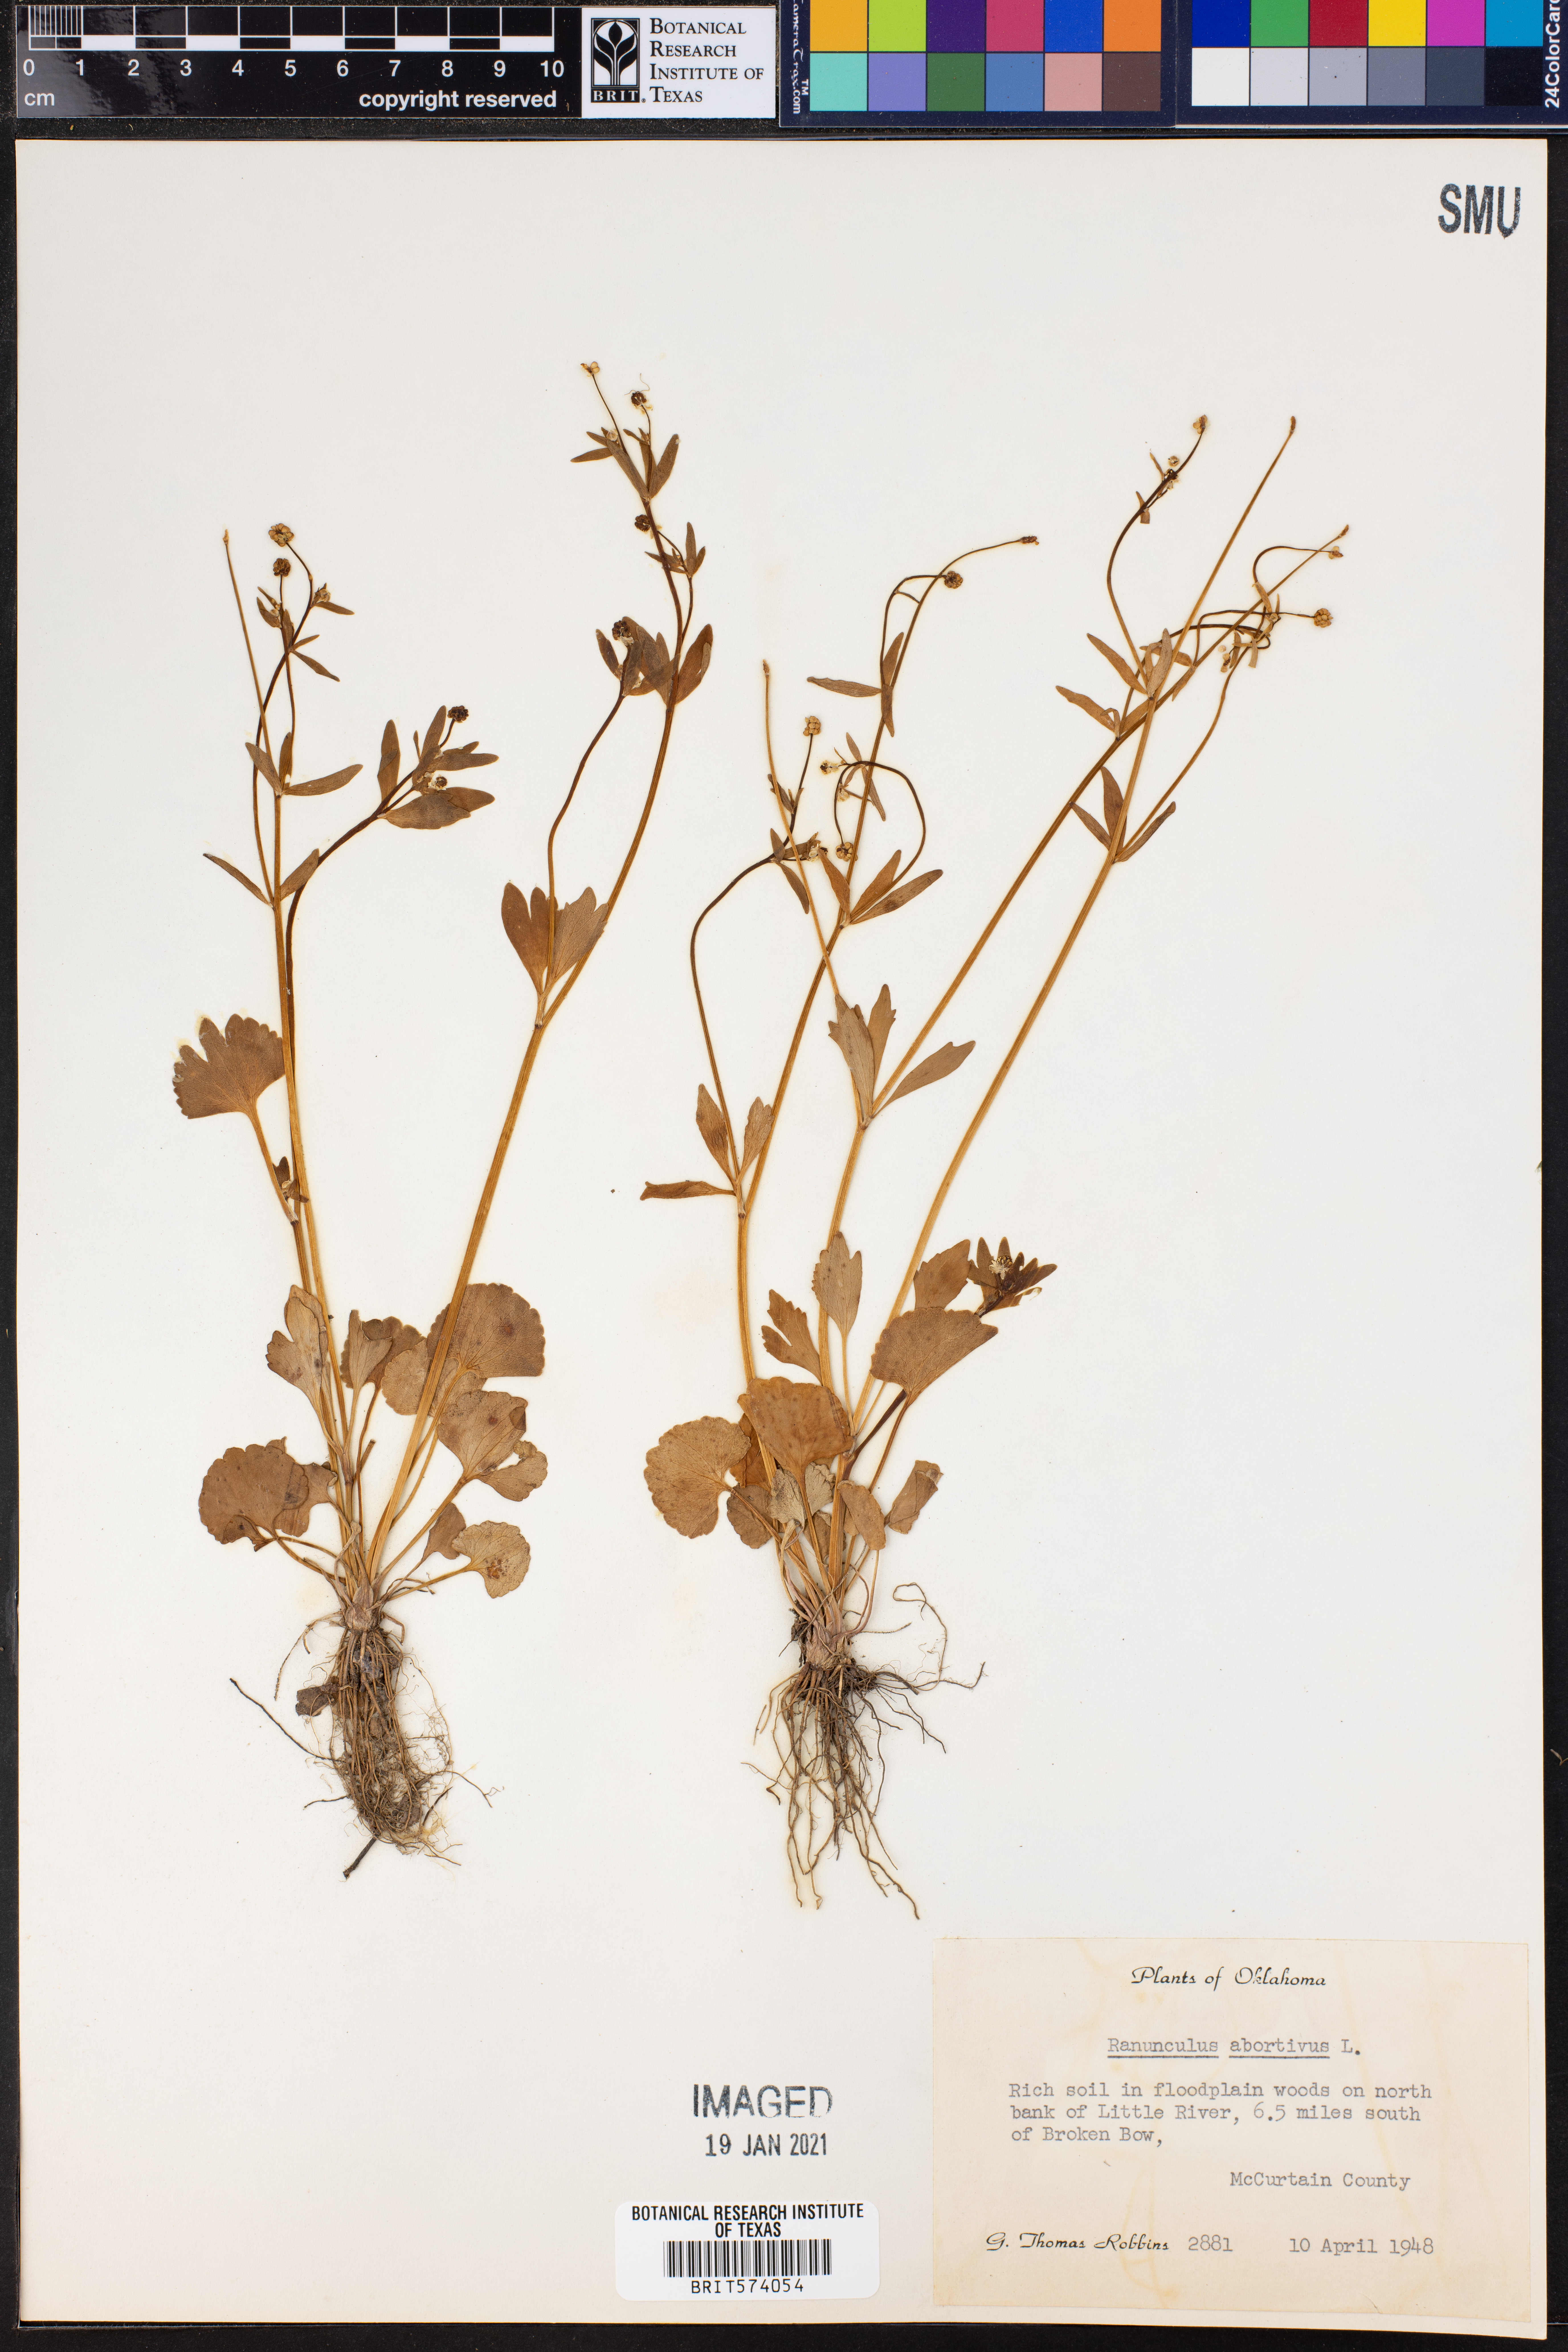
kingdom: Plantae
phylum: Tracheophyta
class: Magnoliopsida
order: Ranunculales
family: Ranunculaceae
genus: Ranunculus
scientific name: Ranunculus abortivus
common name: Early wood buttercup
